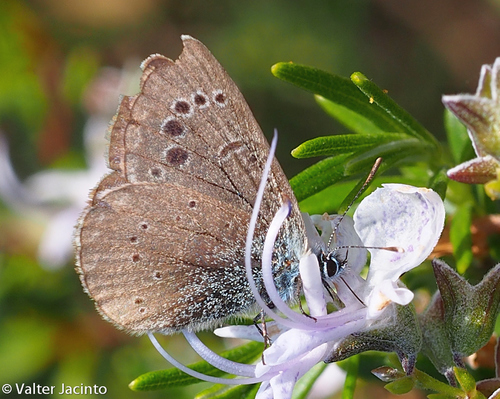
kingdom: Animalia
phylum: Arthropoda
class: Insecta
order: Lepidoptera
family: Lycaenidae
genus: Glaucopsyche
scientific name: Glaucopsyche melanops
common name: Black-eyed blue
